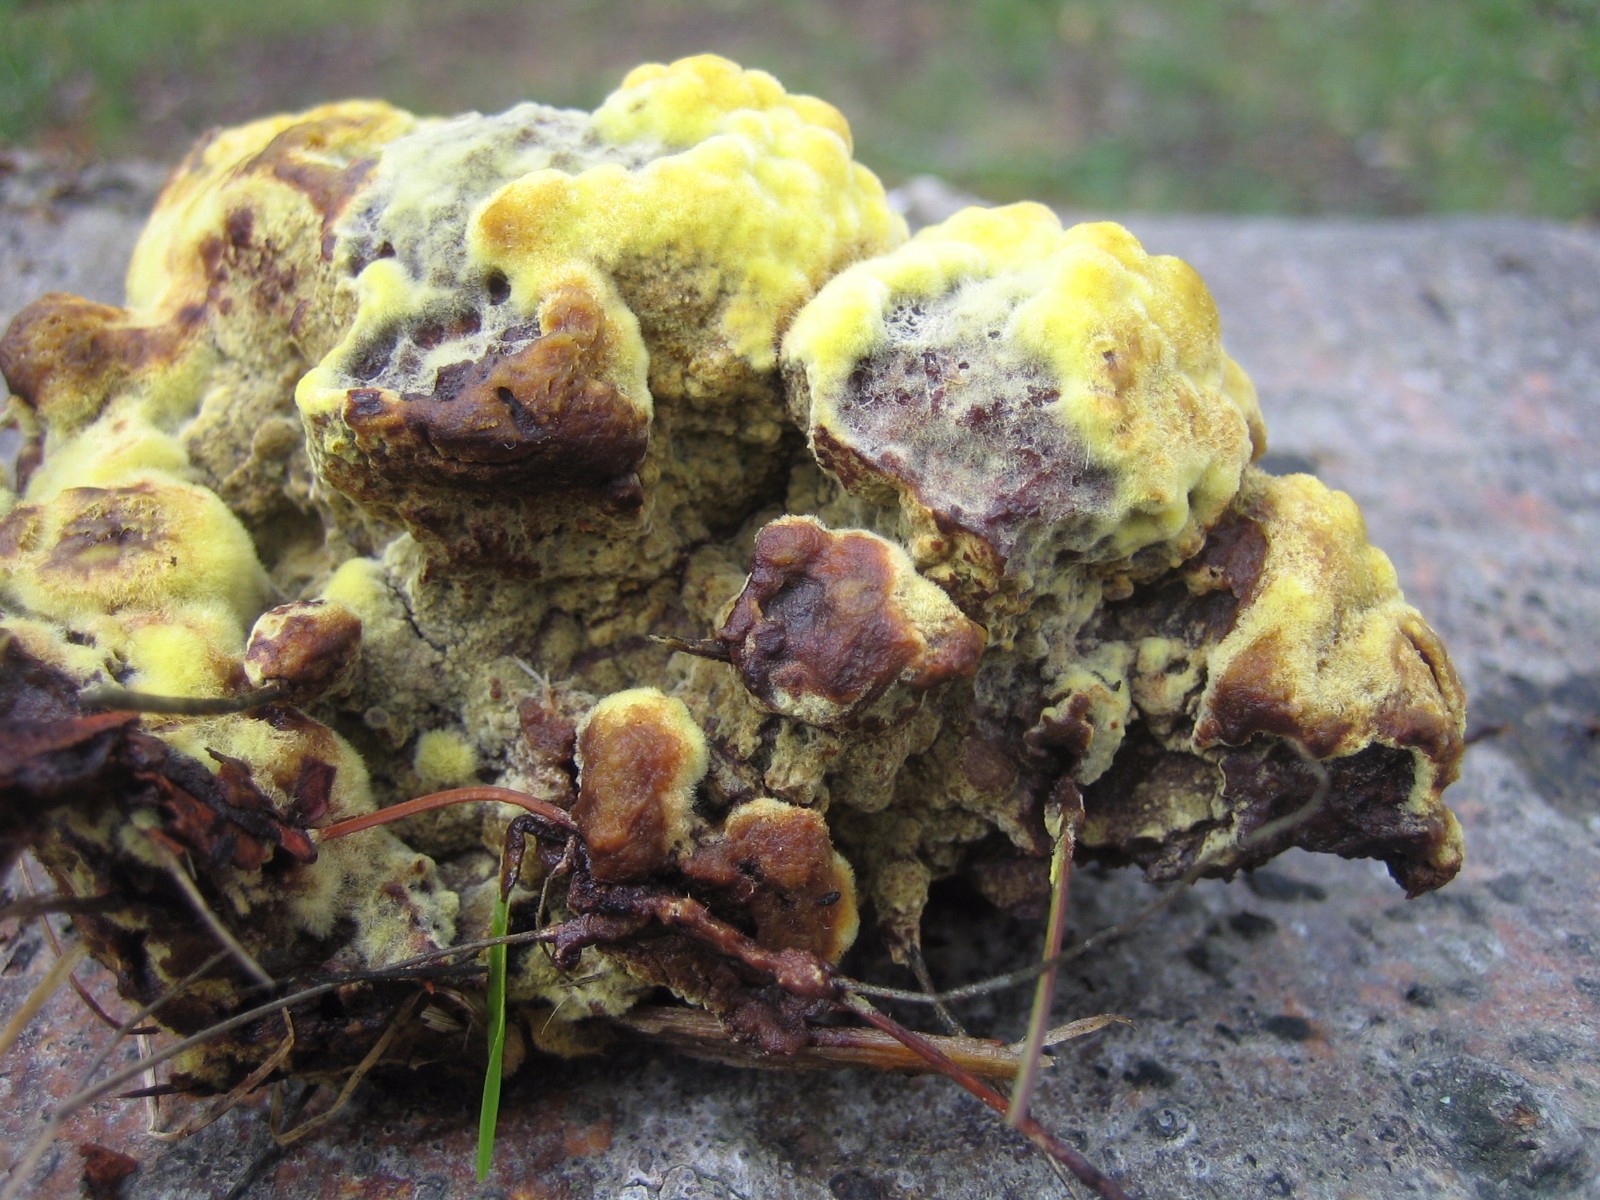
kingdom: Fungi
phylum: Basidiomycota
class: Agaricomycetes
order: Polyporales
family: Laetiporaceae
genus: Phaeolus
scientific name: Phaeolus schweinitzii
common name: brunporesvamp
